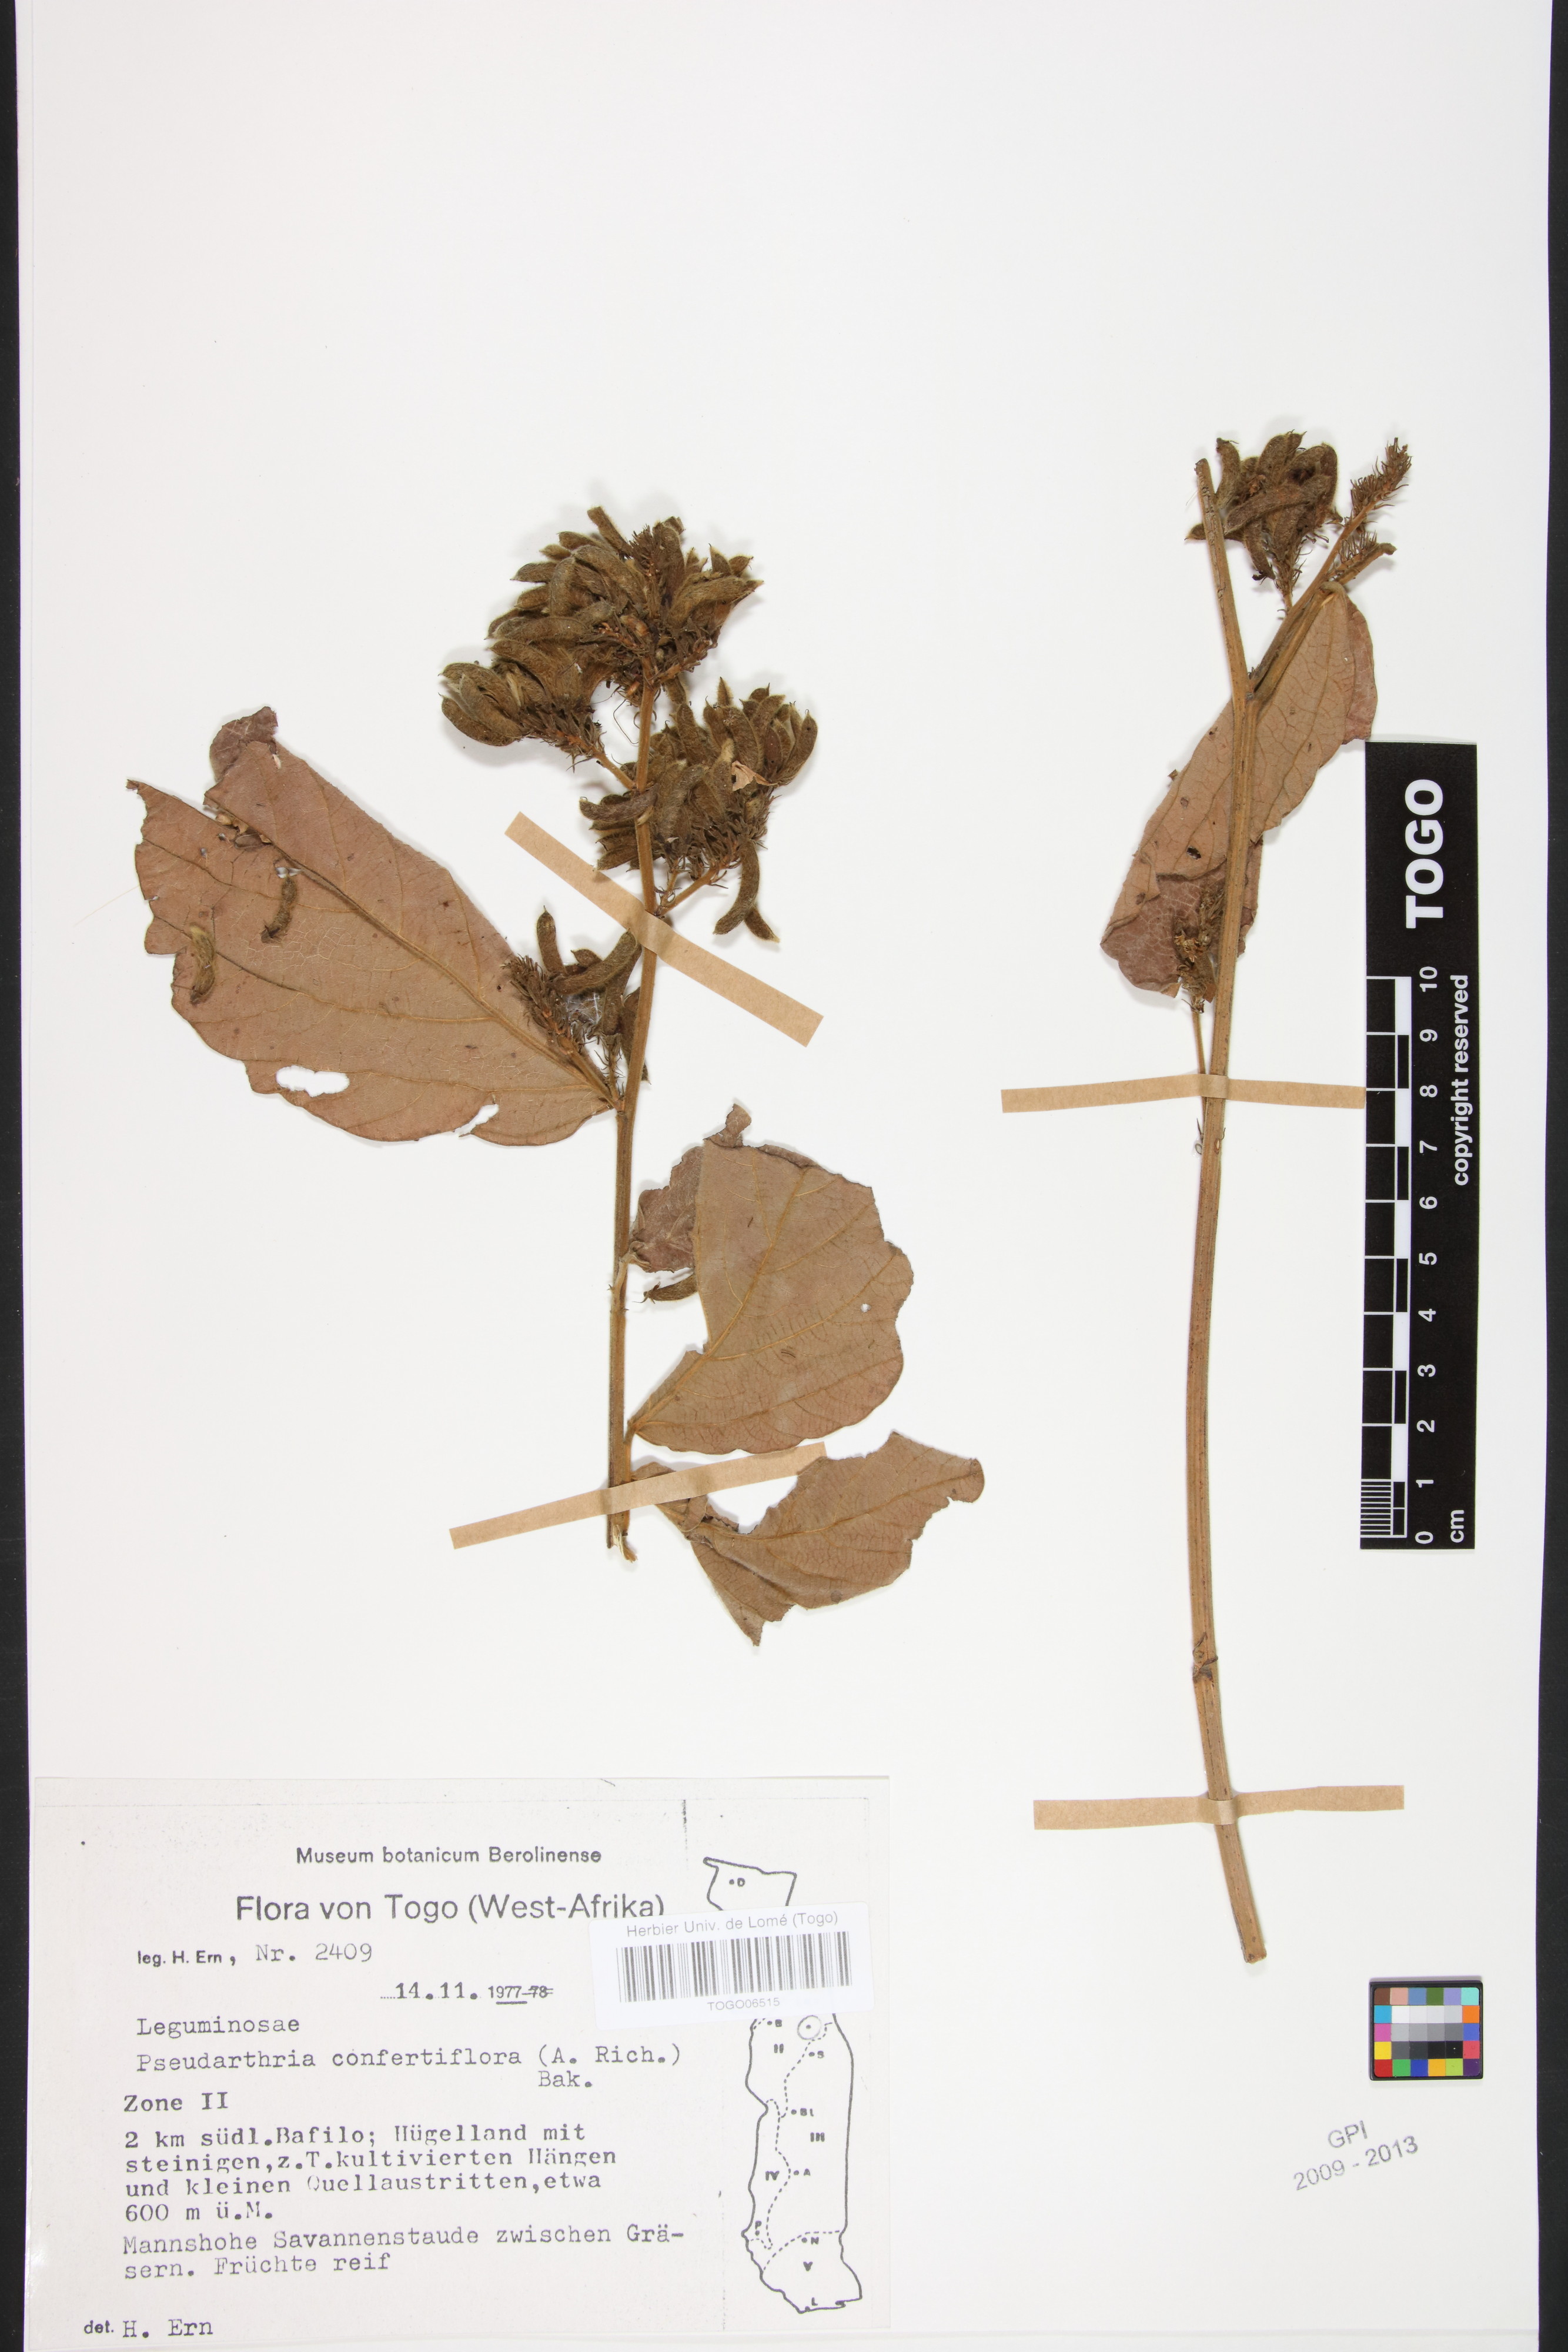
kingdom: Plantae
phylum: Tracheophyta
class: Magnoliopsida
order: Fabales
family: Fabaceae
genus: Pseudarthria
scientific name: Pseudarthria confertiflora
